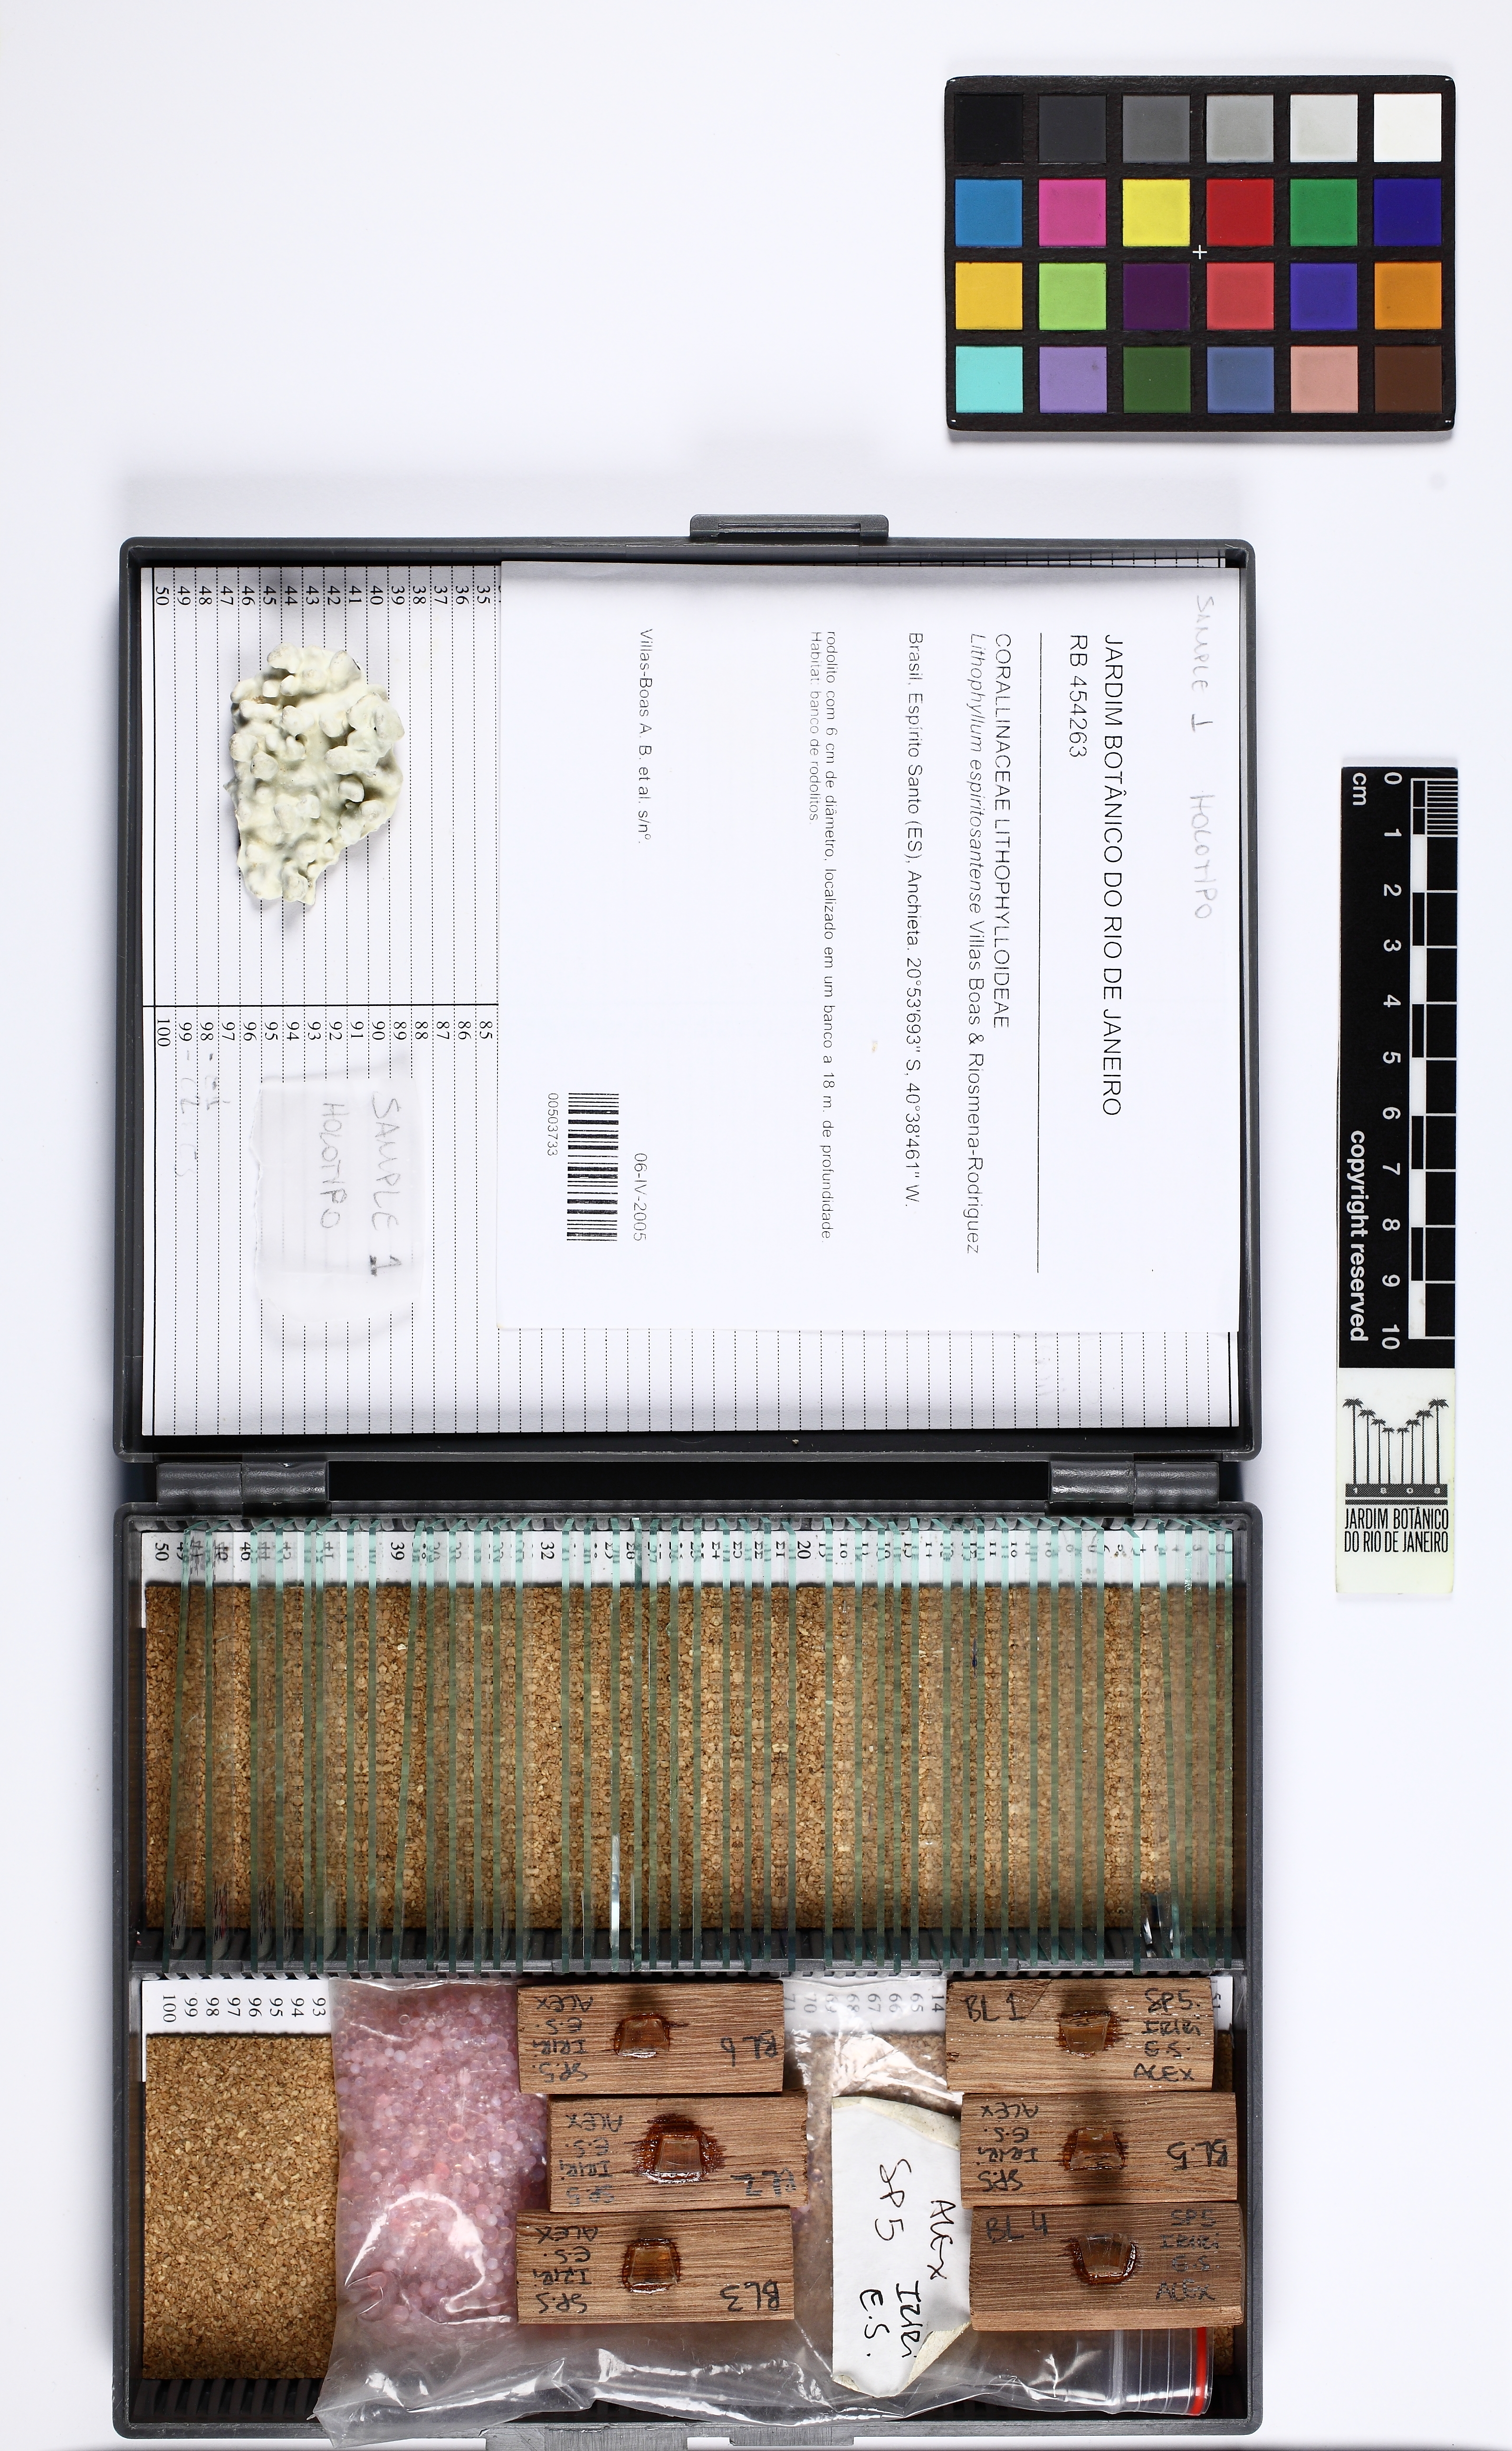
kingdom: Plantae
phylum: Rhodophyta
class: Florideophyceae
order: Corallinales
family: Lithophyllaceae
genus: Lithophyllum
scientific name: Lithophyllum depressum
